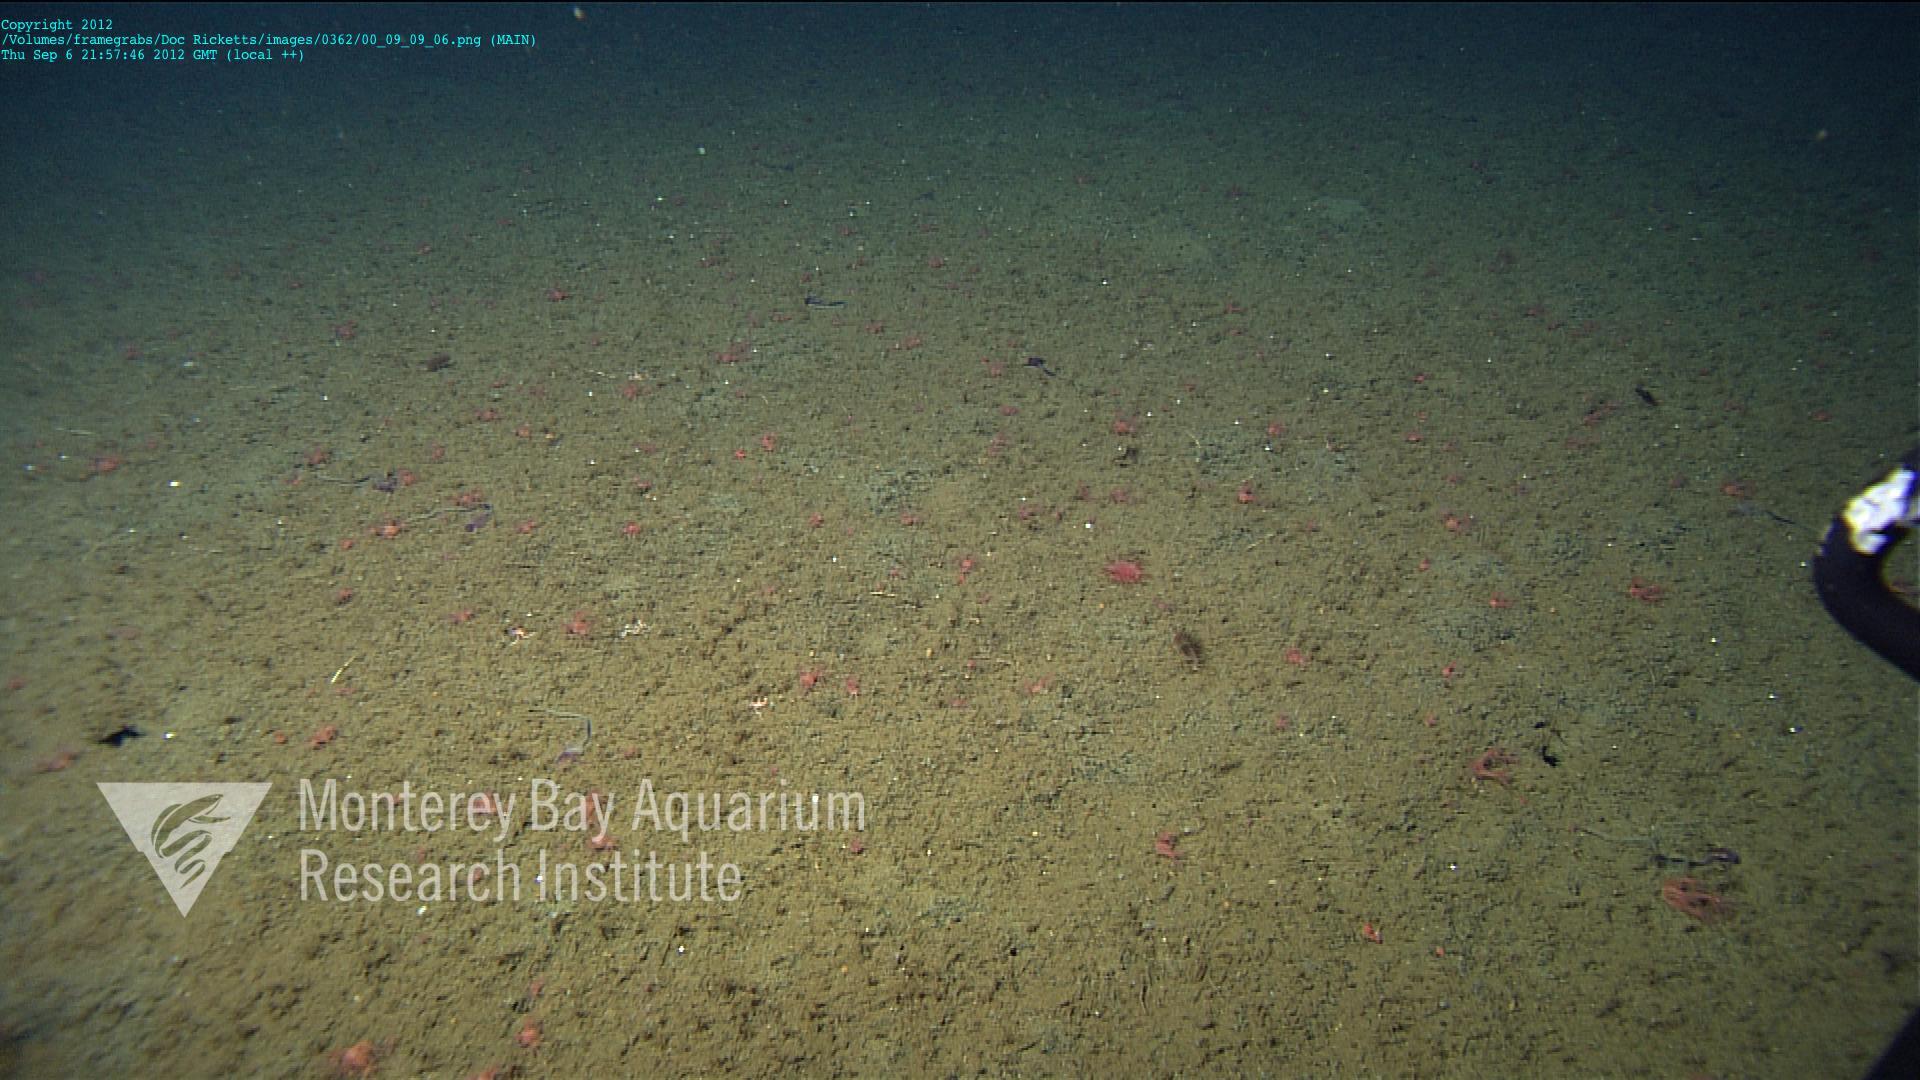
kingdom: Animalia
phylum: Cnidaria
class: Anthozoa
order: Scleralcyonacea
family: Coralliidae
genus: Heteropolypus
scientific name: Heteropolypus
